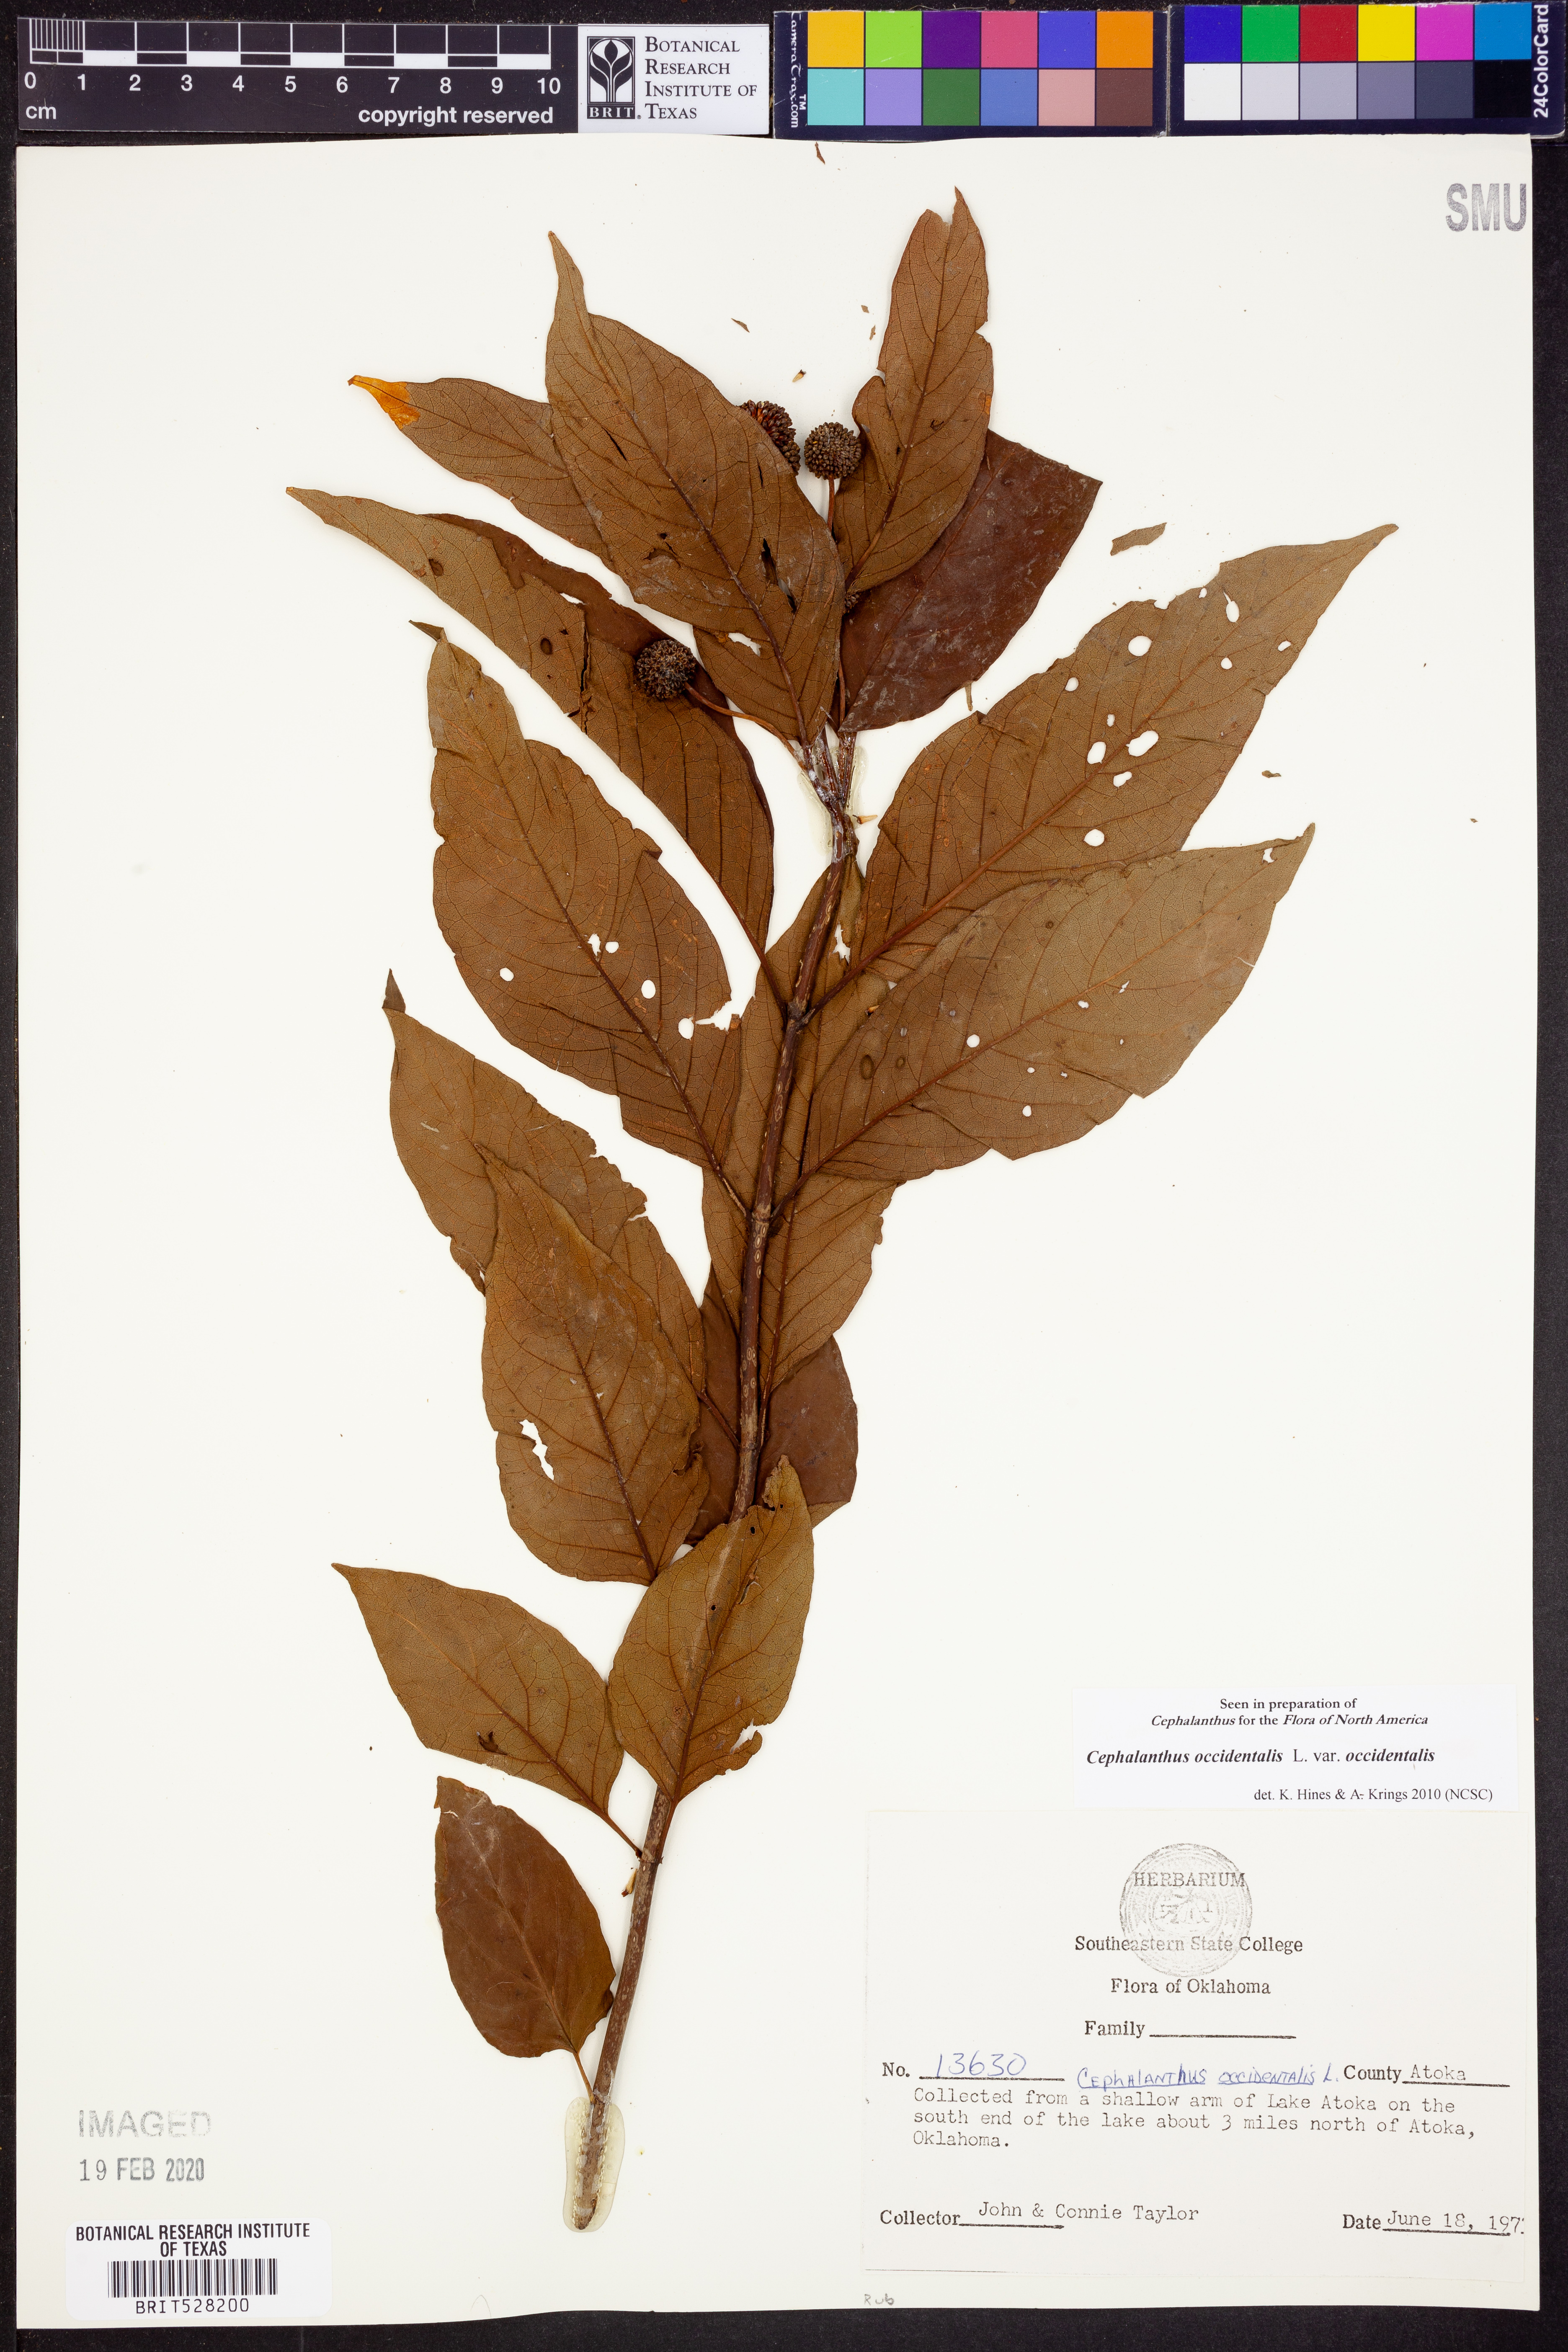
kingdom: Plantae
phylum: Tracheophyta
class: Magnoliopsida
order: Gentianales
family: Rubiaceae
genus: Cephalanthus
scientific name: Cephalanthus occidentalis
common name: Button-willow
